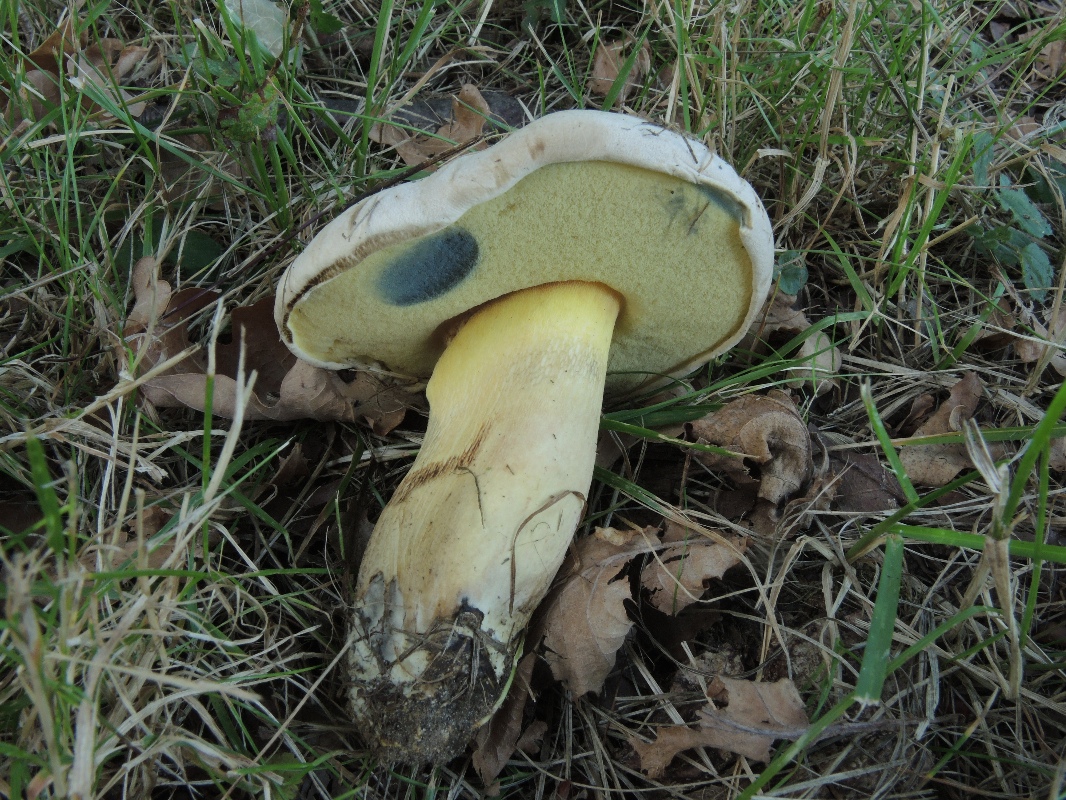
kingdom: Fungi
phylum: Basidiomycota
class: Agaricomycetes
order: Boletales
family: Boletaceae
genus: Caloboletus
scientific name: Caloboletus radicans
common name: rod-rørhat
